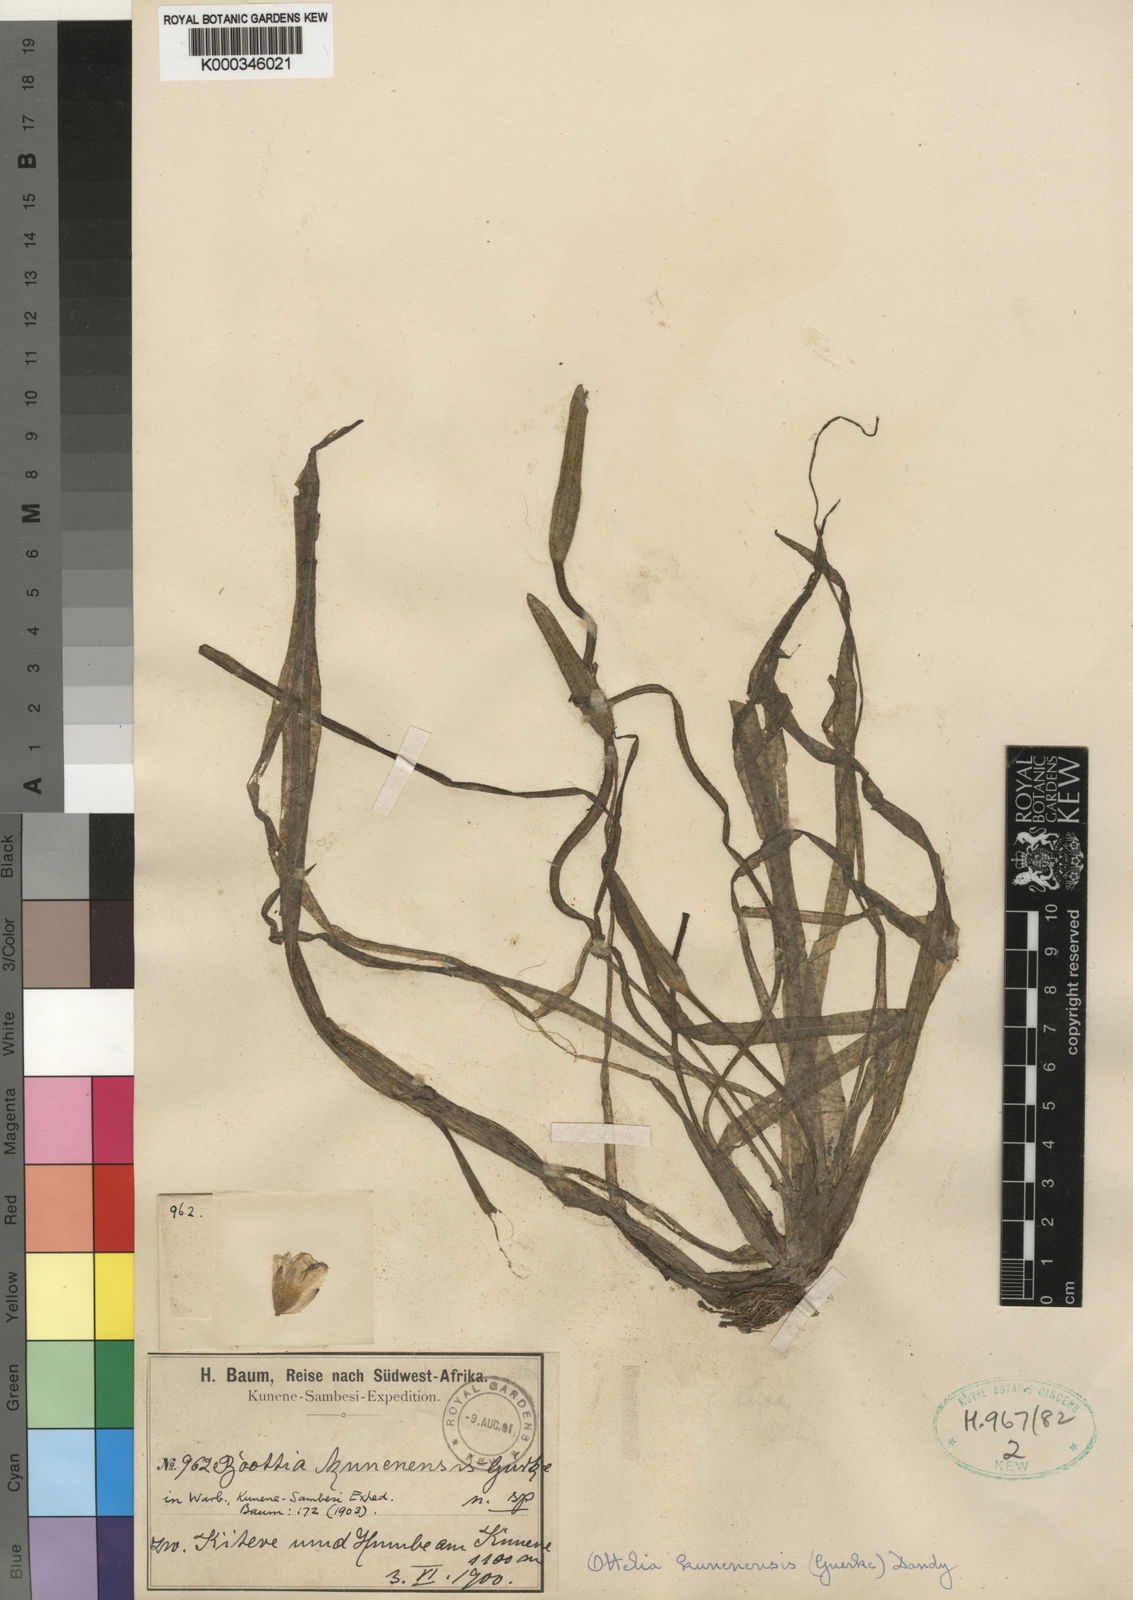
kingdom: Plantae
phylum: Tracheophyta
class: Liliopsida
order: Alismatales
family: Hydrocharitaceae
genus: Ottelia
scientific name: Ottelia
